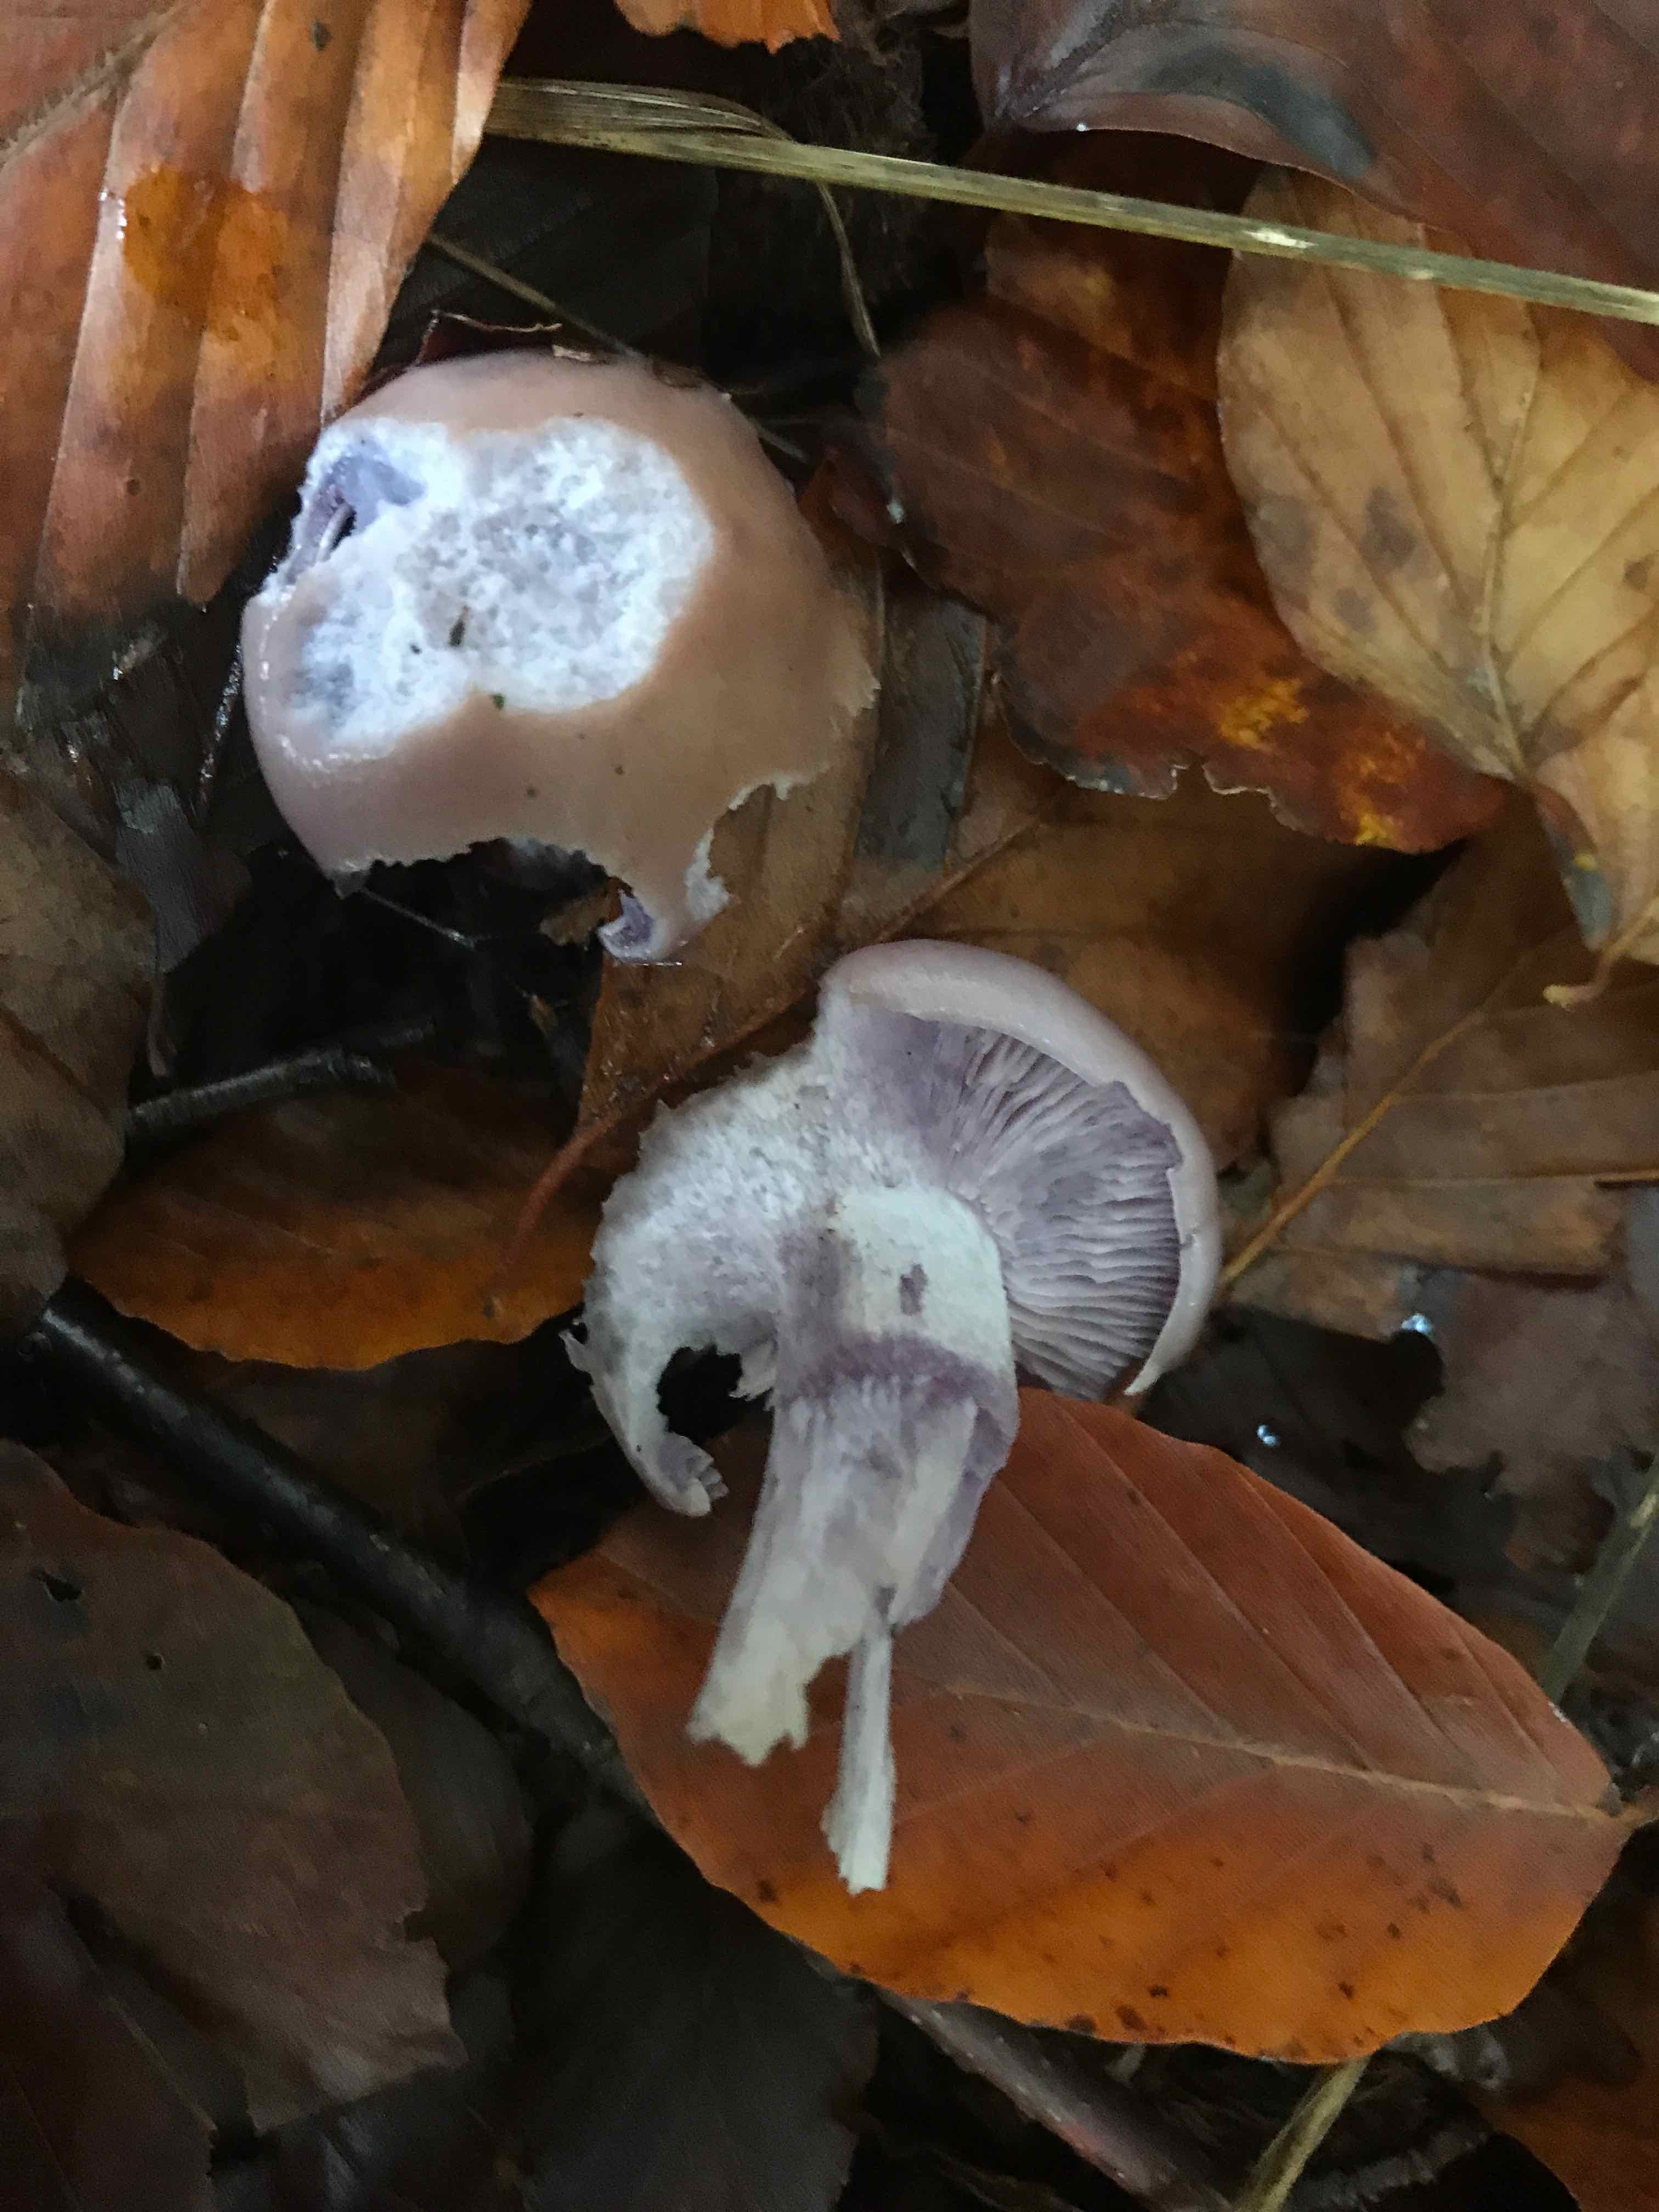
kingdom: Fungi
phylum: Basidiomycota
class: Agaricomycetes
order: Agaricales
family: Tricholomataceae
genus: Lepista
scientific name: Lepista nuda
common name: violet hekseringshat
